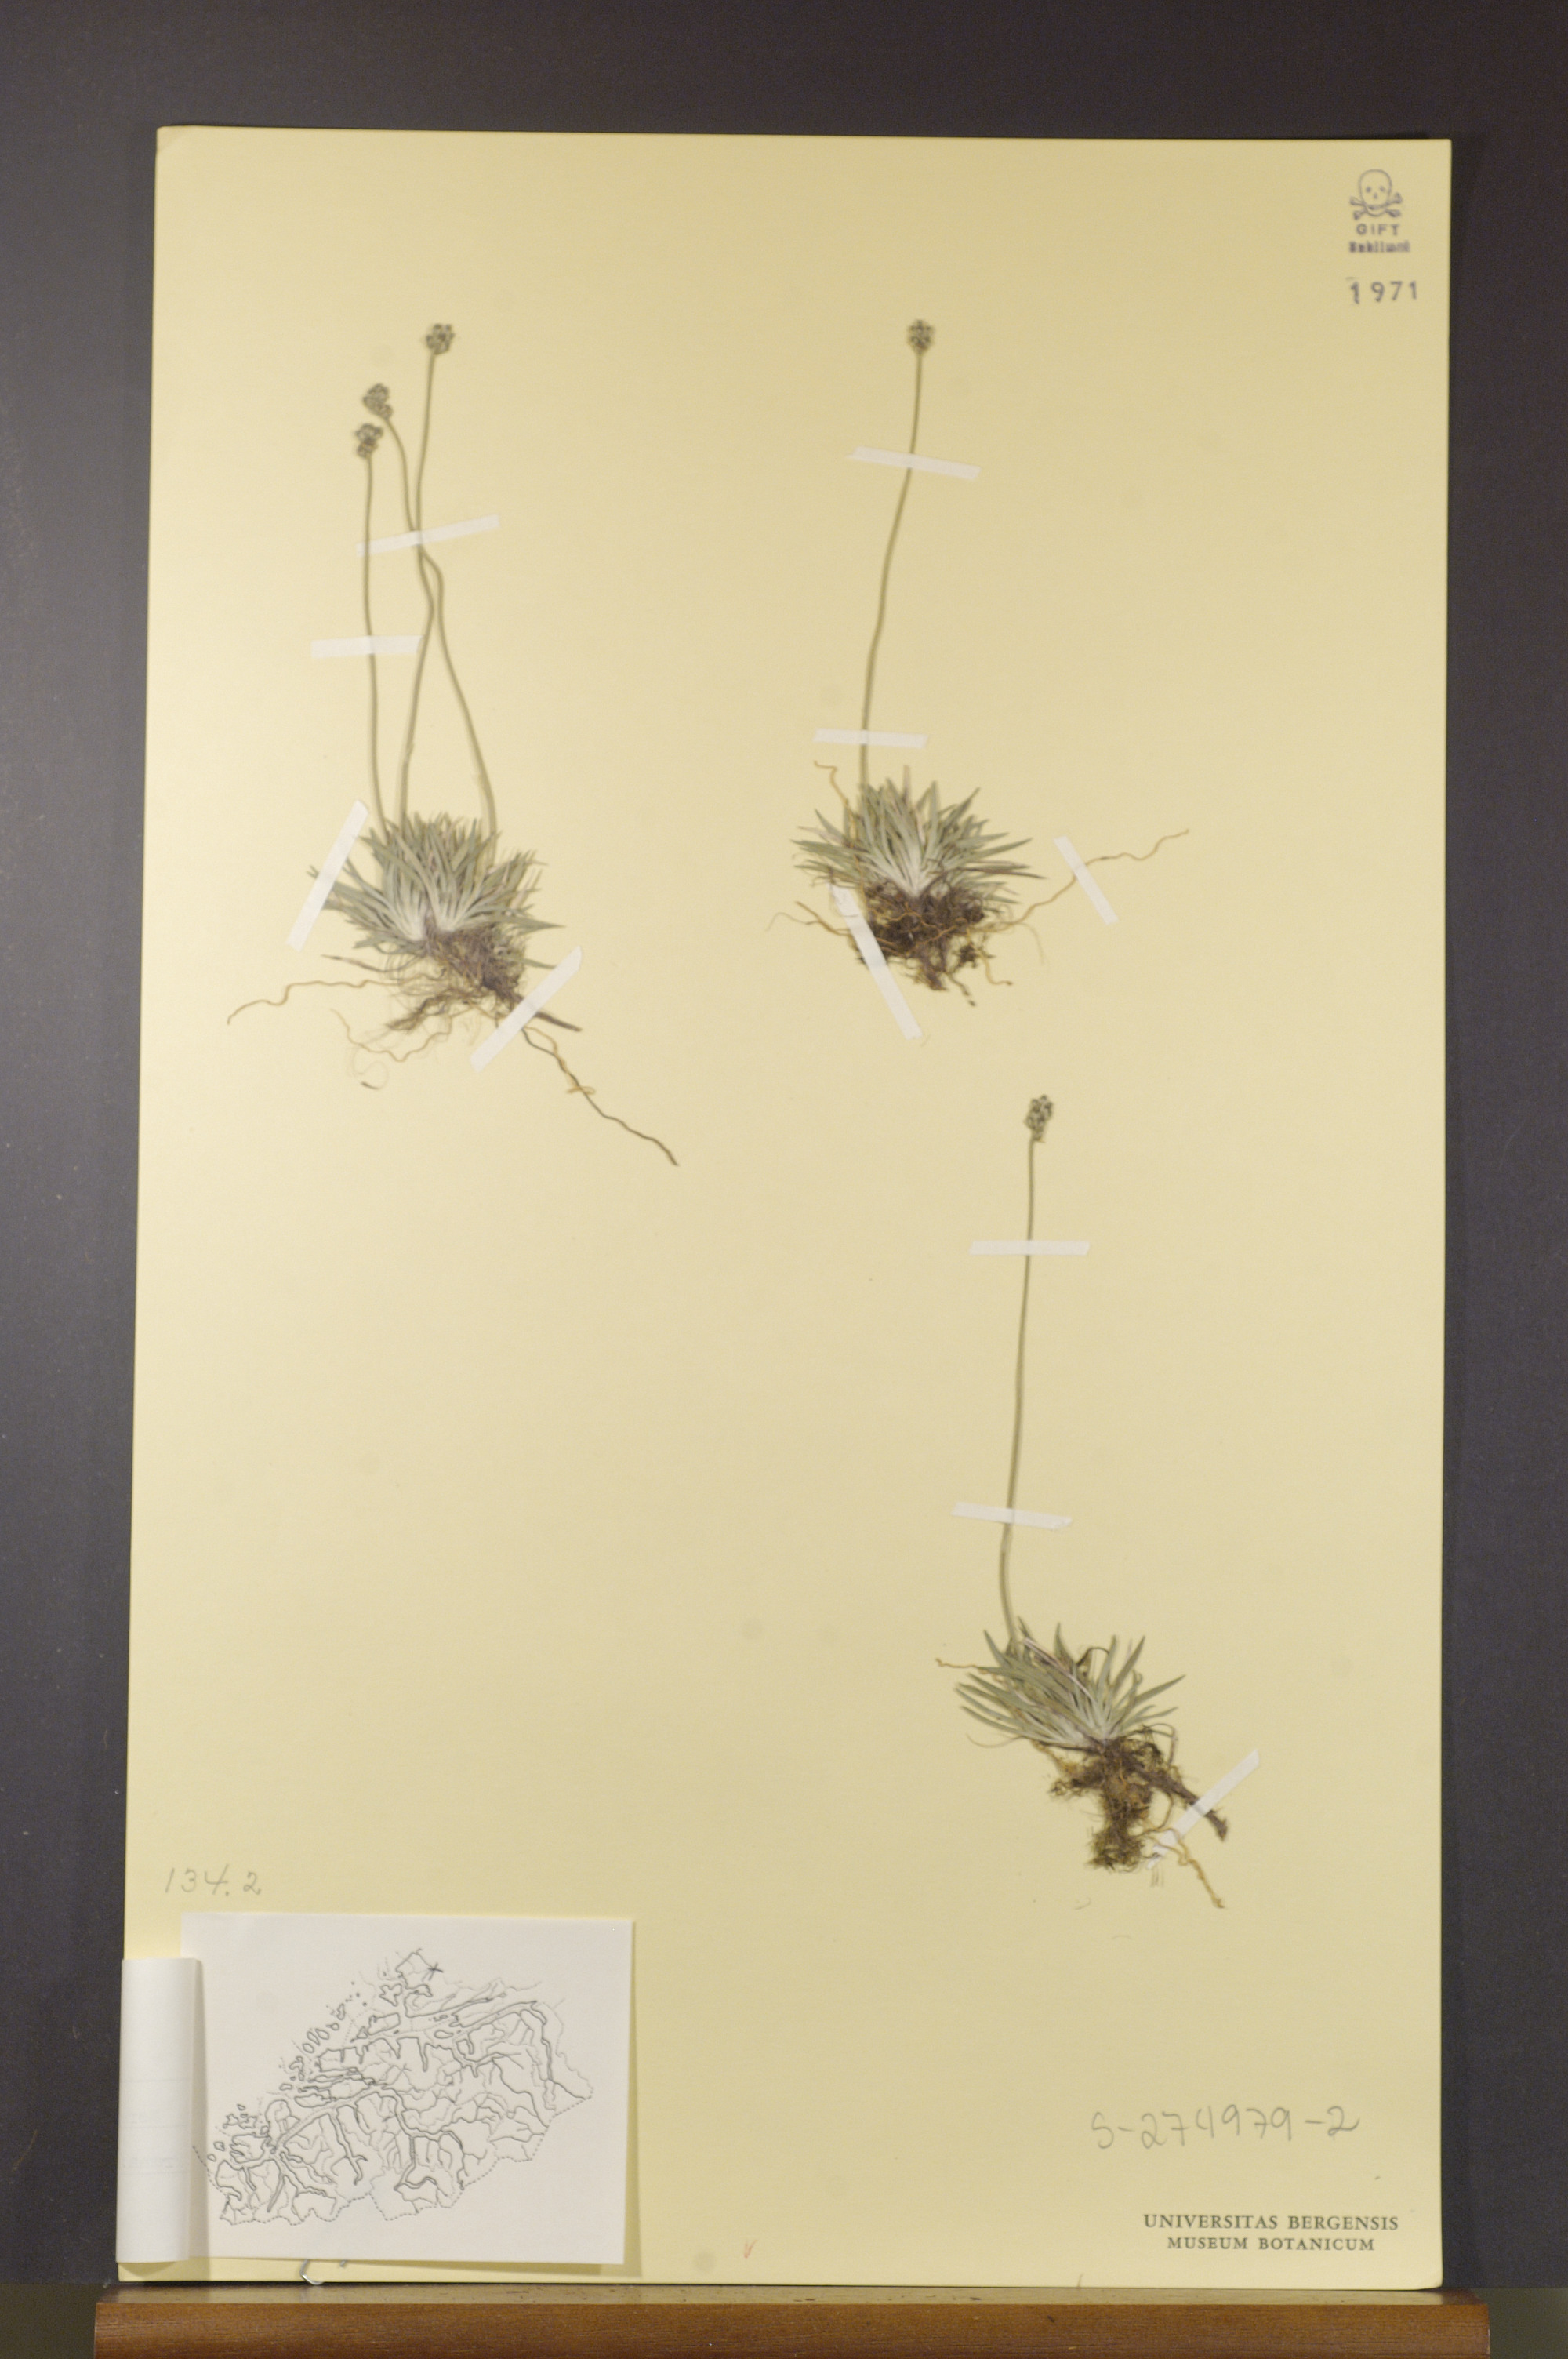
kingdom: Plantae
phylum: Tracheophyta
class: Liliopsida
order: Alismatales
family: Tofieldiaceae
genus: Tofieldia
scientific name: Tofieldia pusilla
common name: Scottish false asphodel
